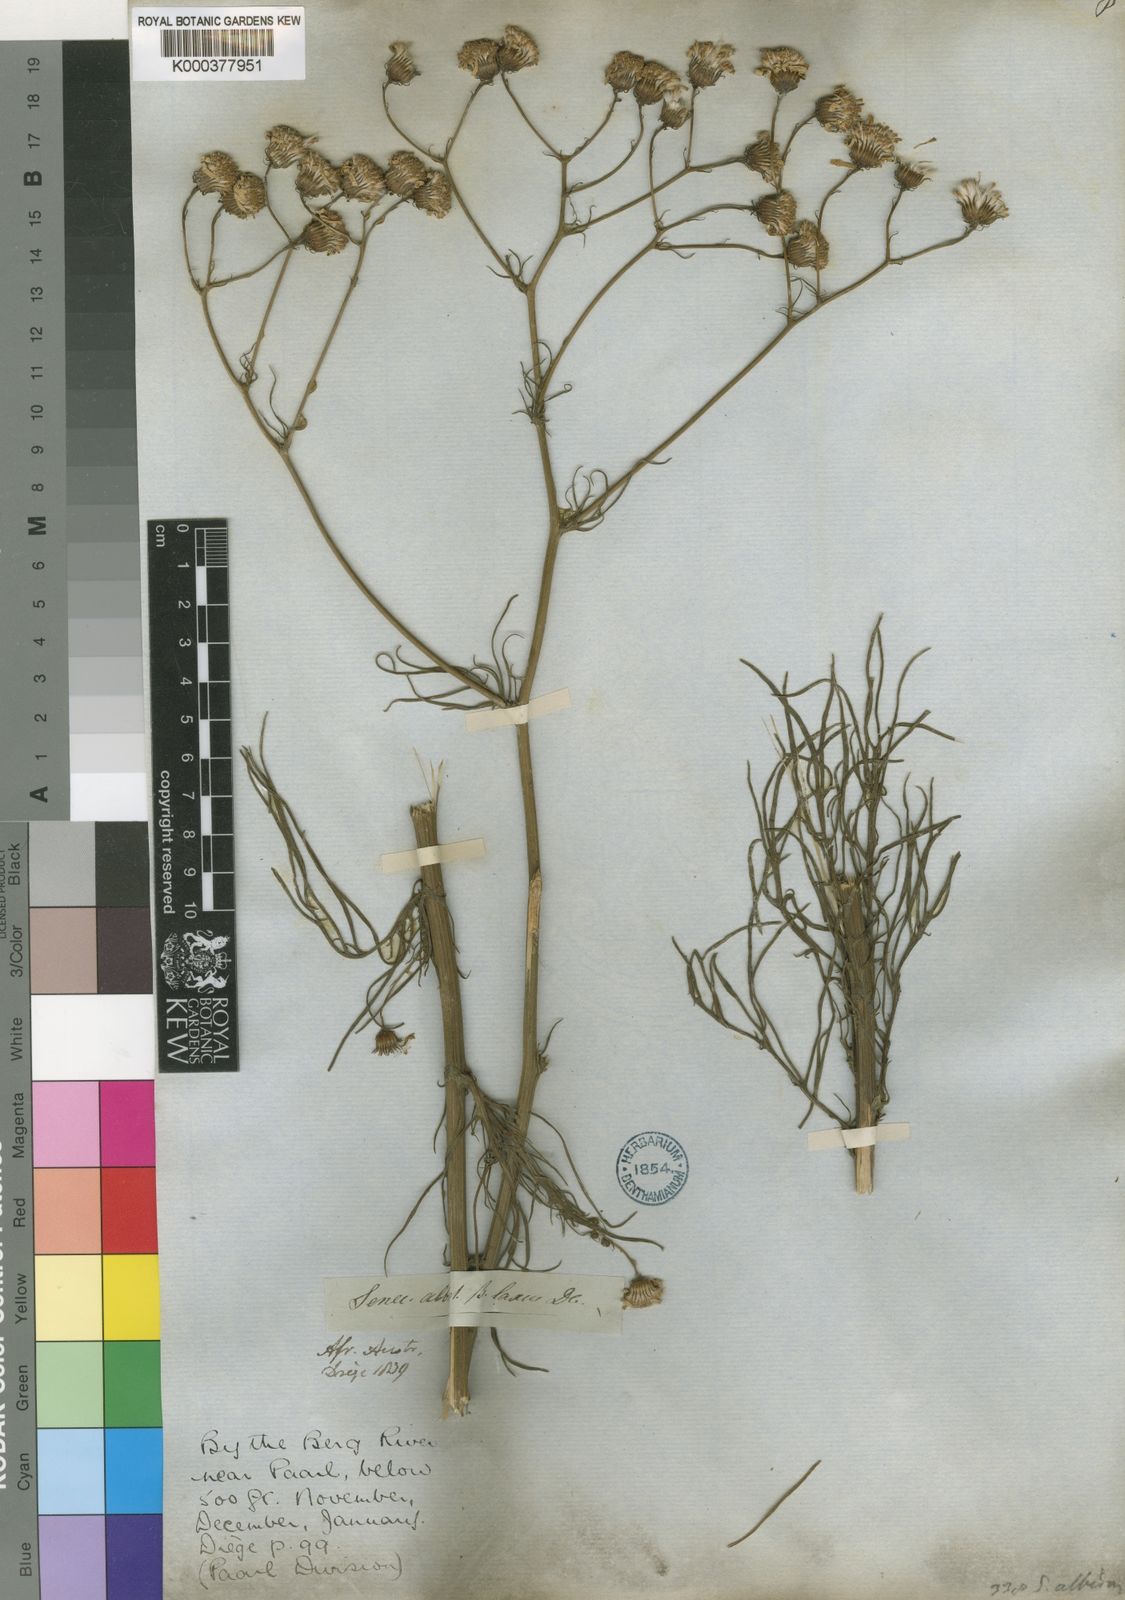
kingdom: Plantae
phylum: Tracheophyta
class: Magnoliopsida
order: Asterales
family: Asteraceae
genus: Senecio
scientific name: Senecio
